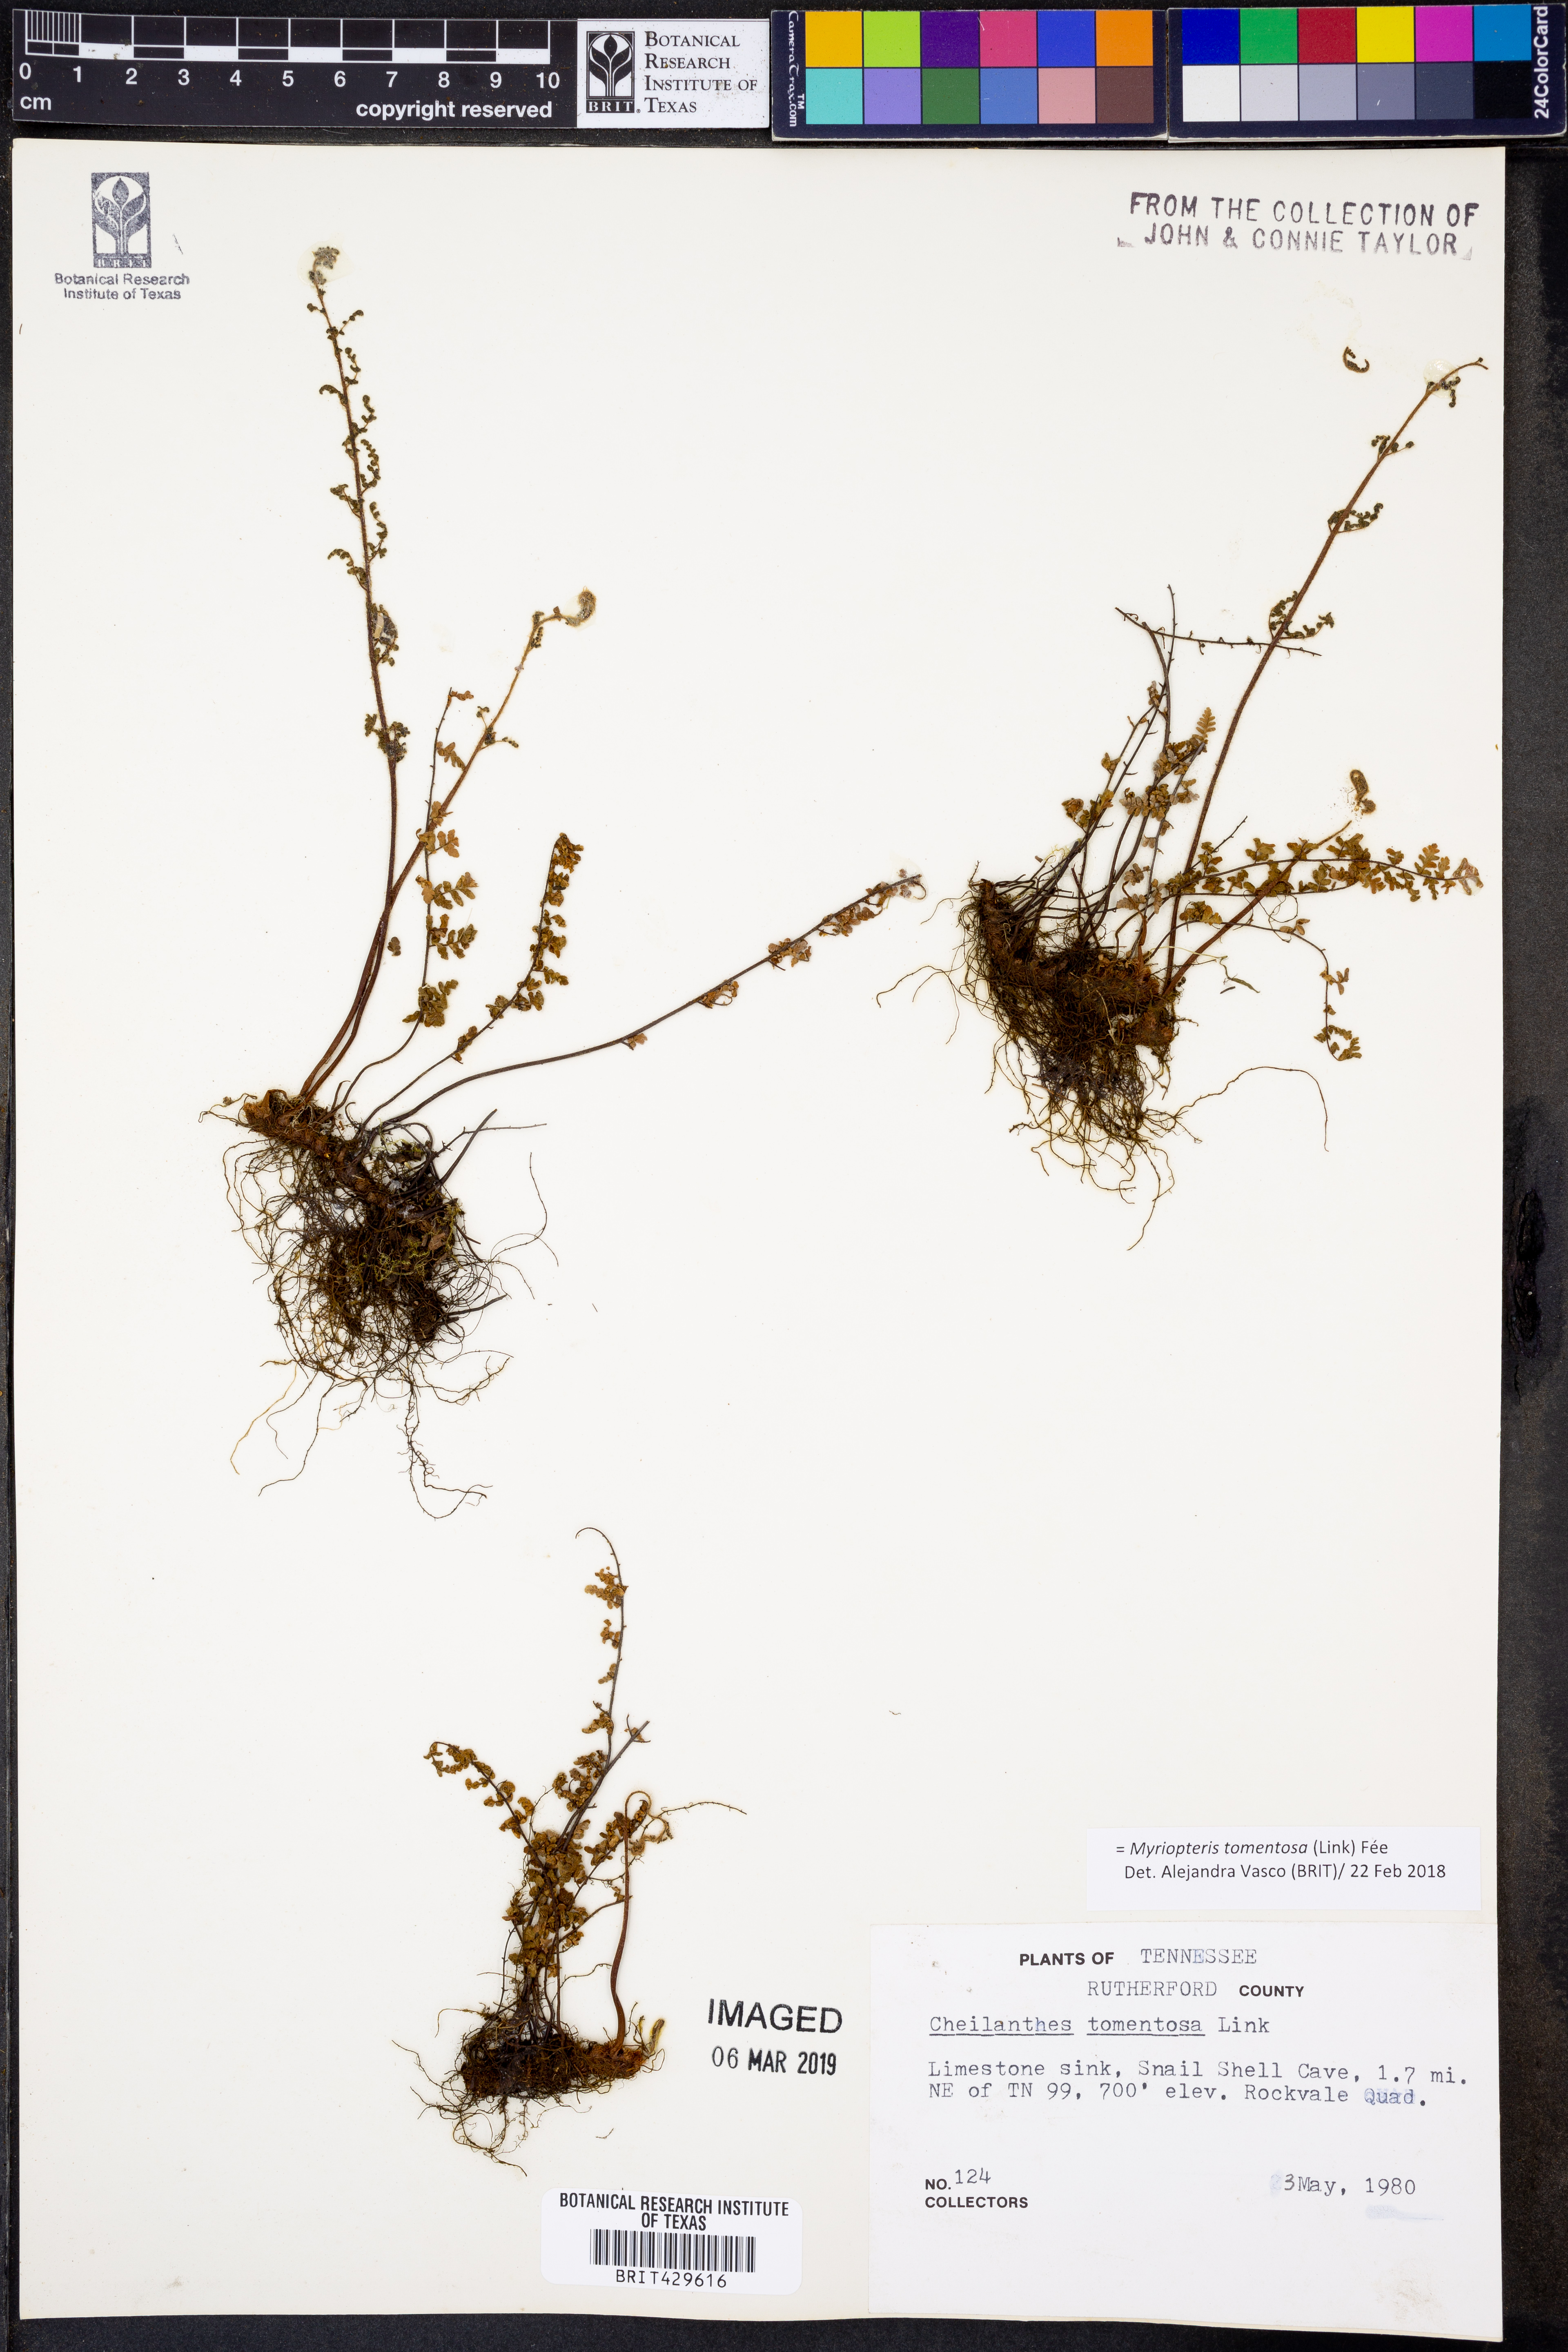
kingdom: Plantae
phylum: Tracheophyta
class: Polypodiopsida
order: Polypodiales
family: Pteridaceae
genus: Myriopteris
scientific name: Myriopteris tomentosa
